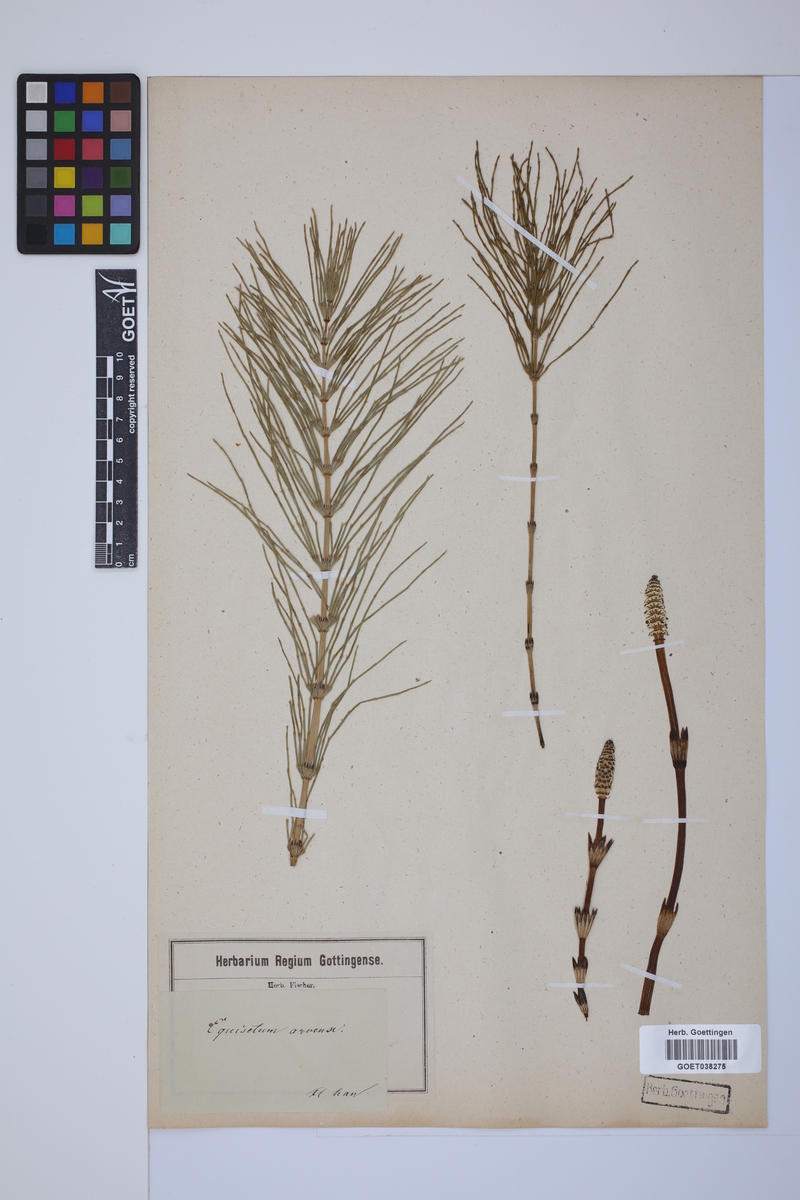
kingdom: Plantae
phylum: Tracheophyta
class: Polypodiopsida
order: Equisetales
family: Equisetaceae
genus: Equisetum
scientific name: Equisetum arvense
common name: Field horsetail
